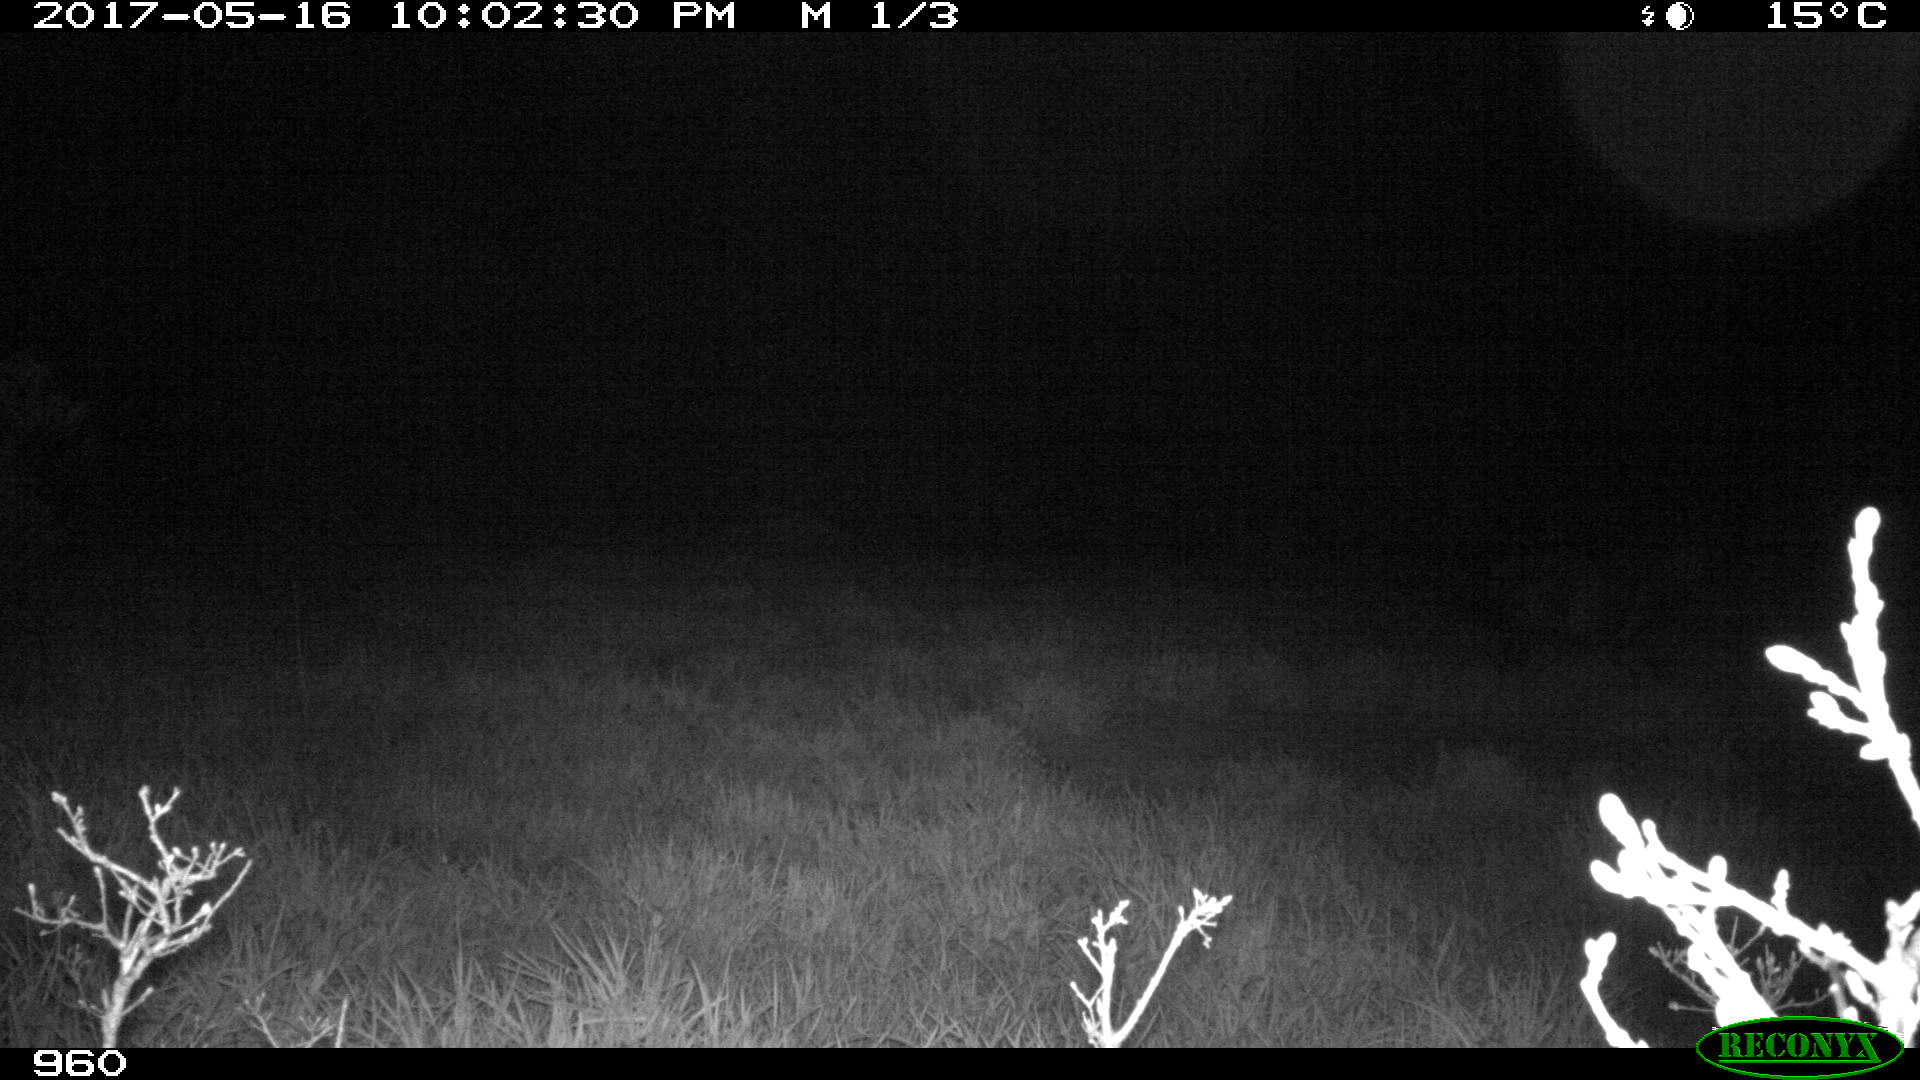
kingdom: Animalia
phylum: Chordata
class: Mammalia
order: Perissodactyla
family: Equidae
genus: Equus
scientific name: Equus caballus
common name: Horse
